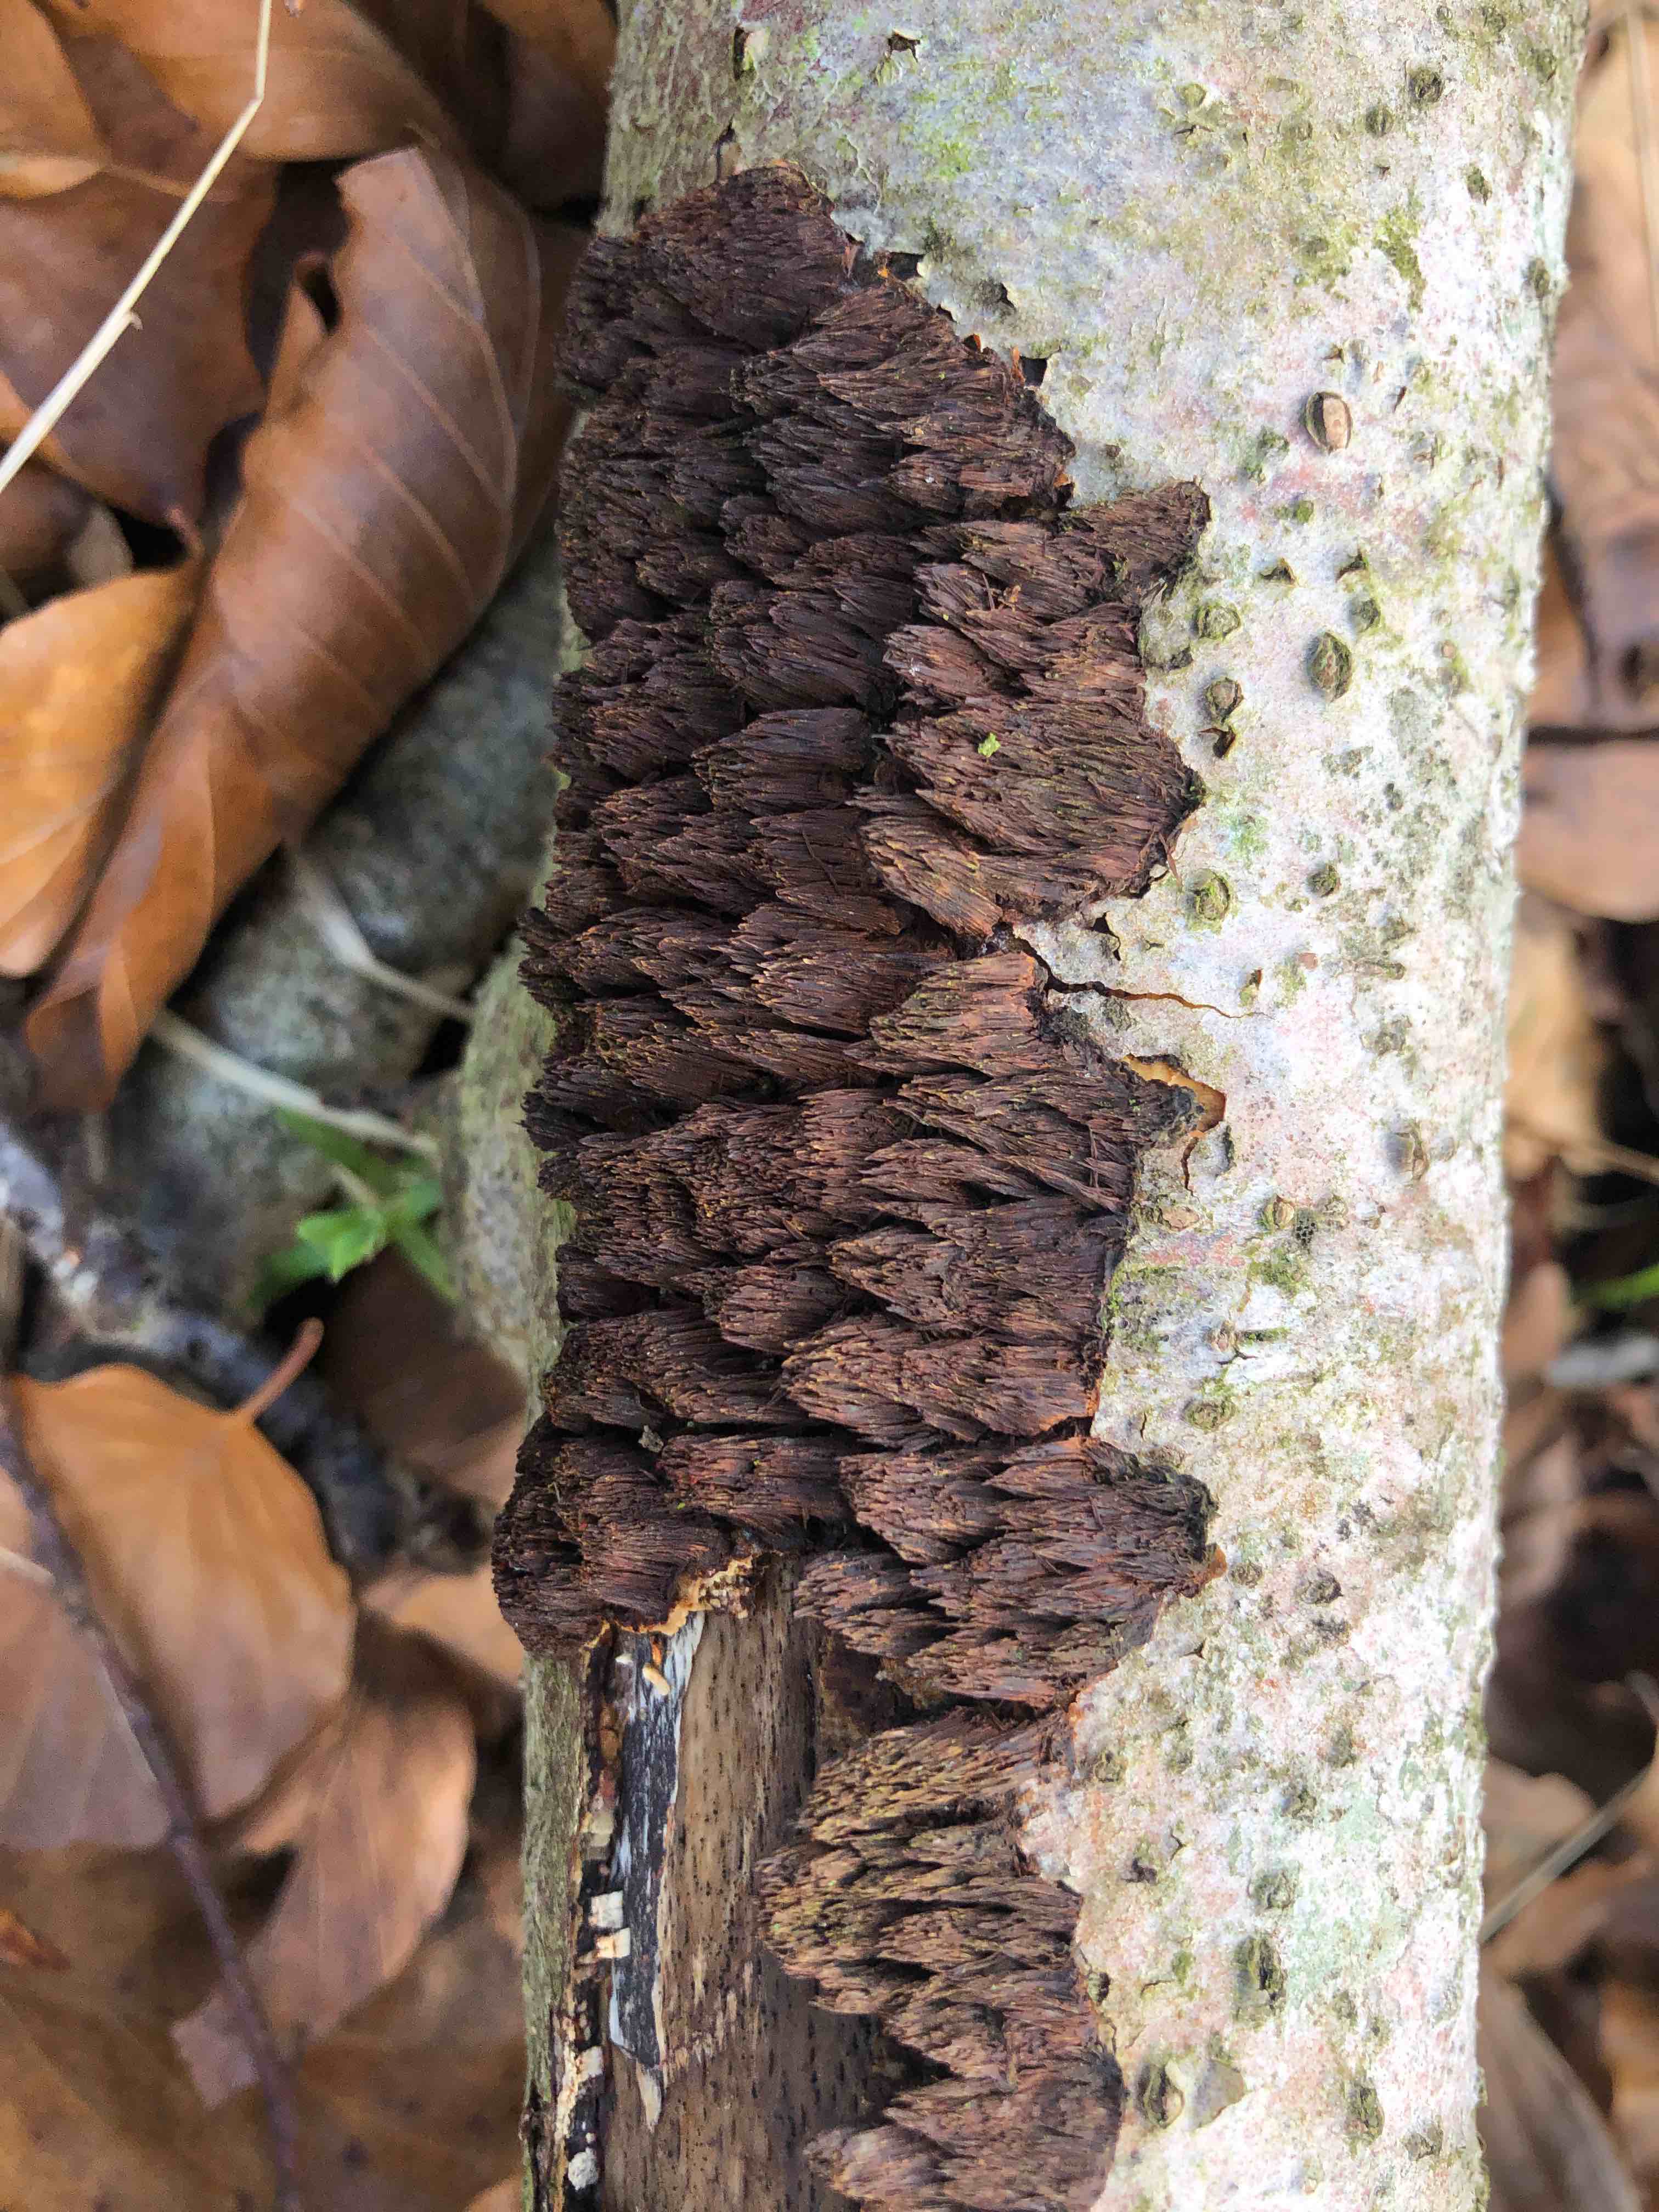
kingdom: Fungi
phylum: Basidiomycota
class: Agaricomycetes
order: Hymenochaetales
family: Hymenochaetaceae
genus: Mensularia
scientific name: Mensularia nodulosa
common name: bøge-spejlporesvamp
